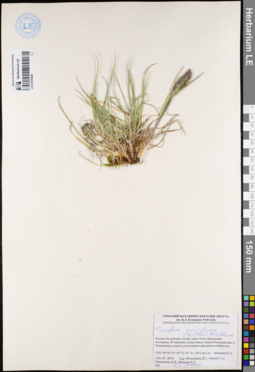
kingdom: Plantae
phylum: Tracheophyta
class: Liliopsida
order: Poales
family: Poaceae
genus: Koeleria
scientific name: Koeleria spicata
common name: Mountain trisetum
